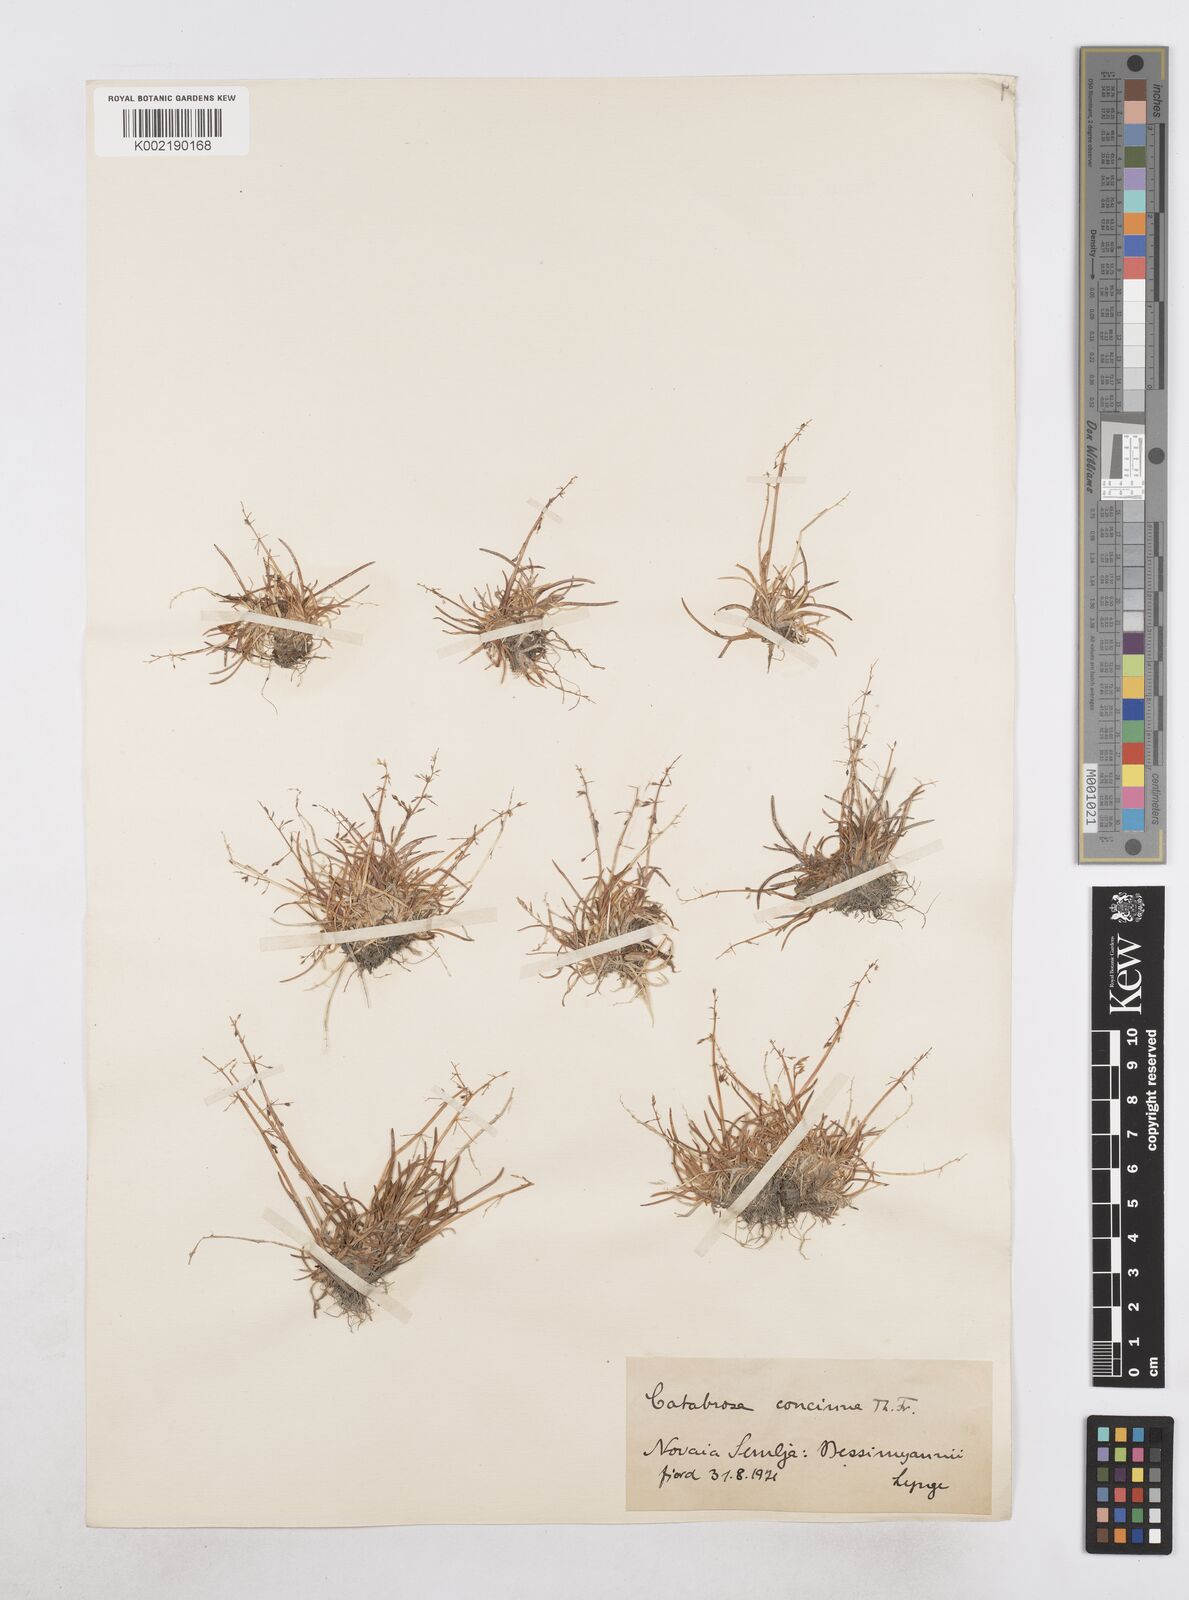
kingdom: Plantae
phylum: Tracheophyta
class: Liliopsida
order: Poales
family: Poaceae
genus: Phippsia
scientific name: Phippsia concinna
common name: Snowgrass
